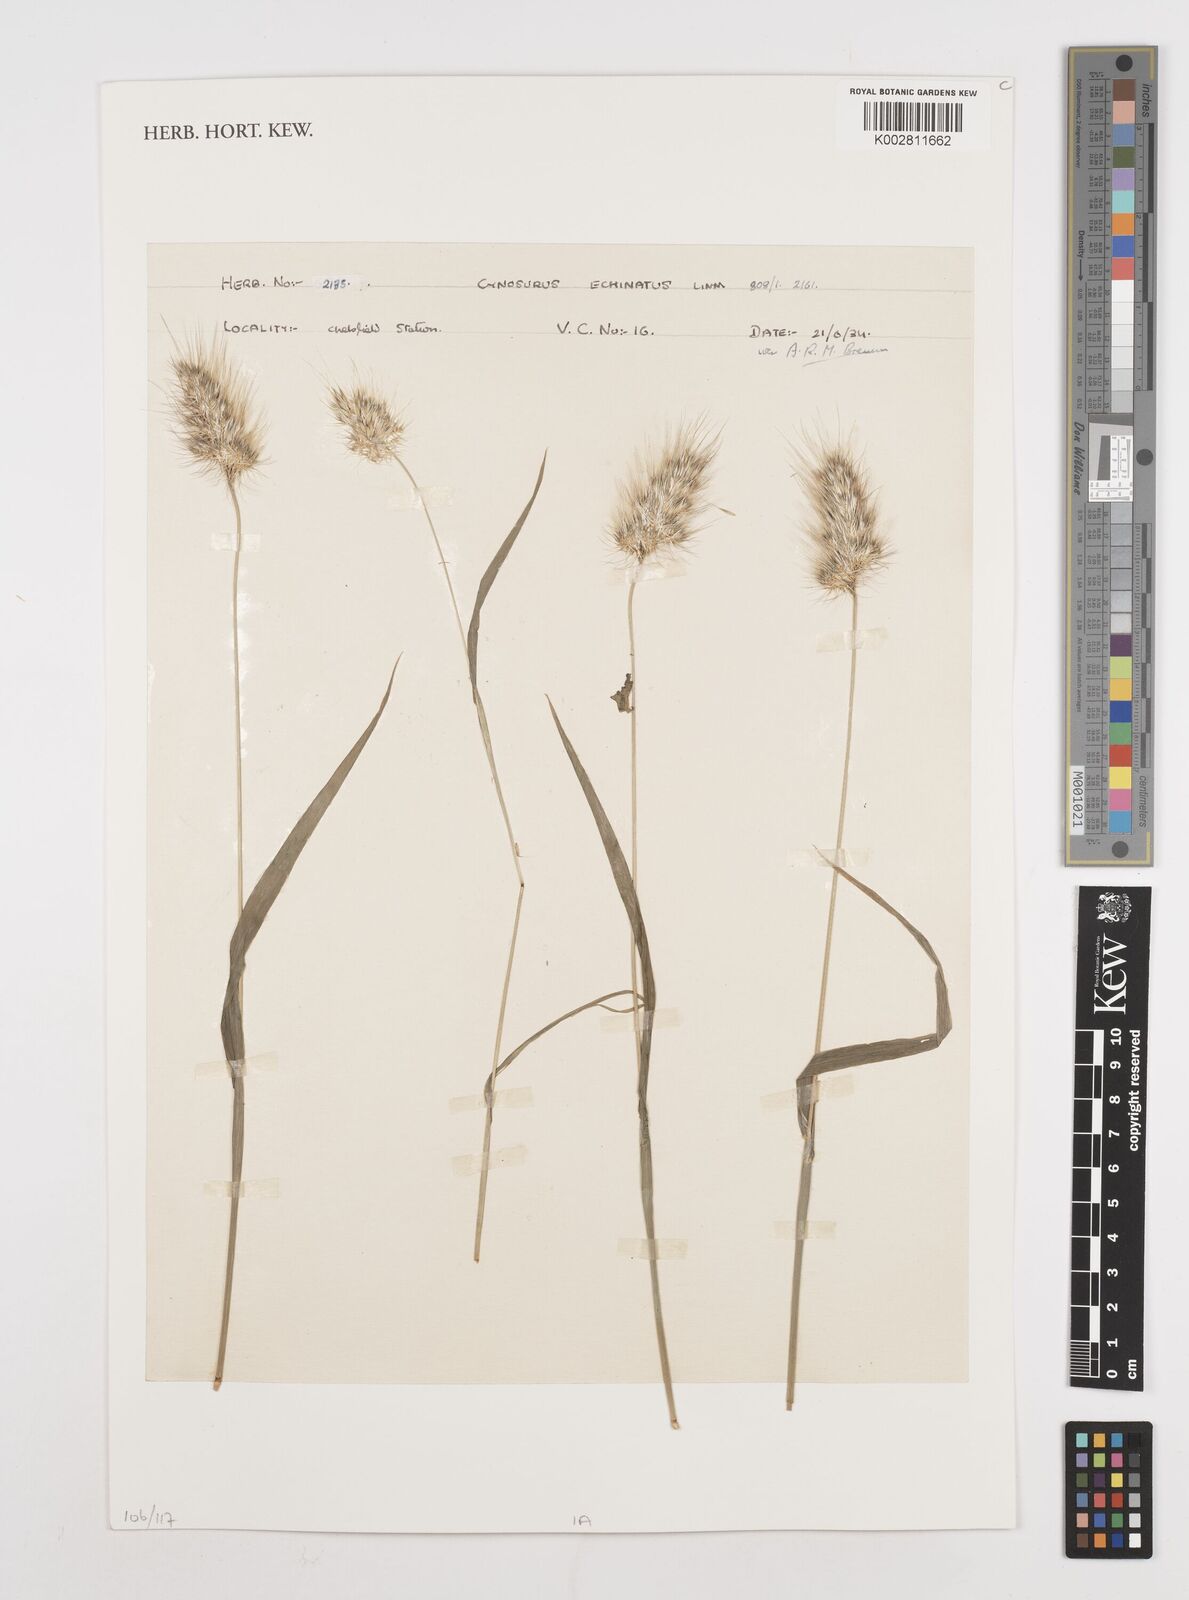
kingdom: Plantae
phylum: Tracheophyta
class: Liliopsida
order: Poales
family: Poaceae
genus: Cynosurus
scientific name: Cynosurus echinatus
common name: Rough dog's-tail
